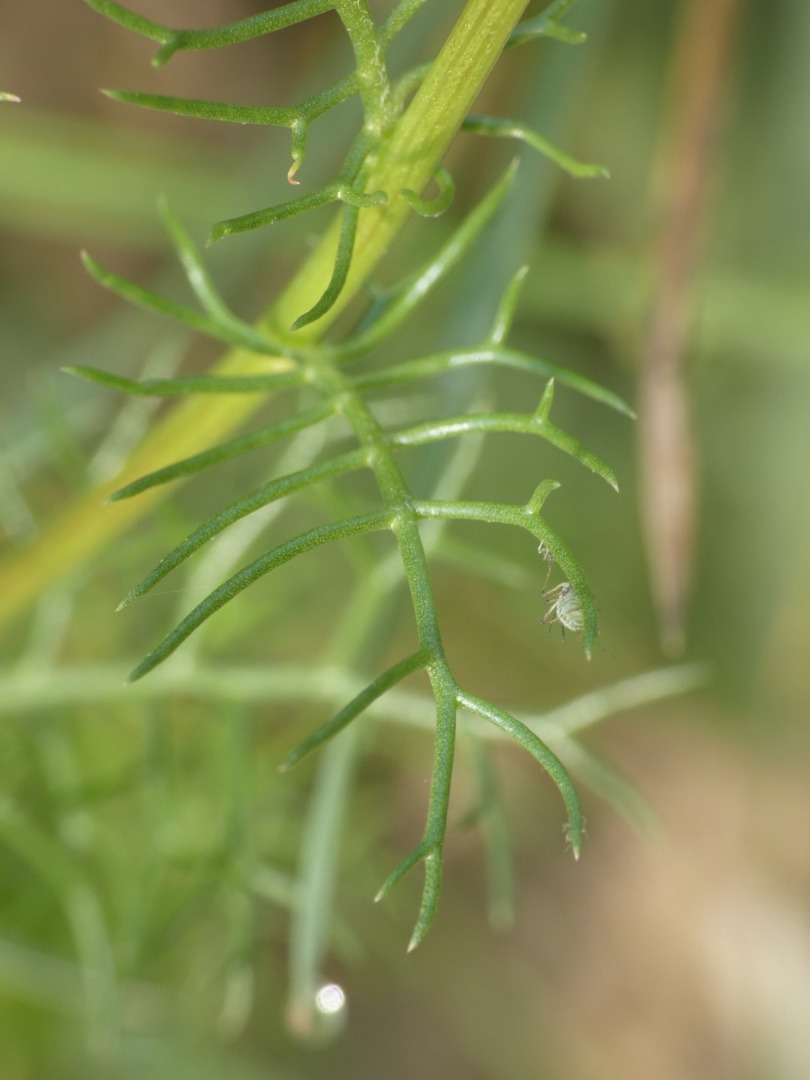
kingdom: Plantae
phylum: Tracheophyta
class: Magnoliopsida
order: Asterales
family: Asteraceae
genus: Tripleurospermum
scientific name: Tripleurospermum inodorum
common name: Lugtløs kamille
